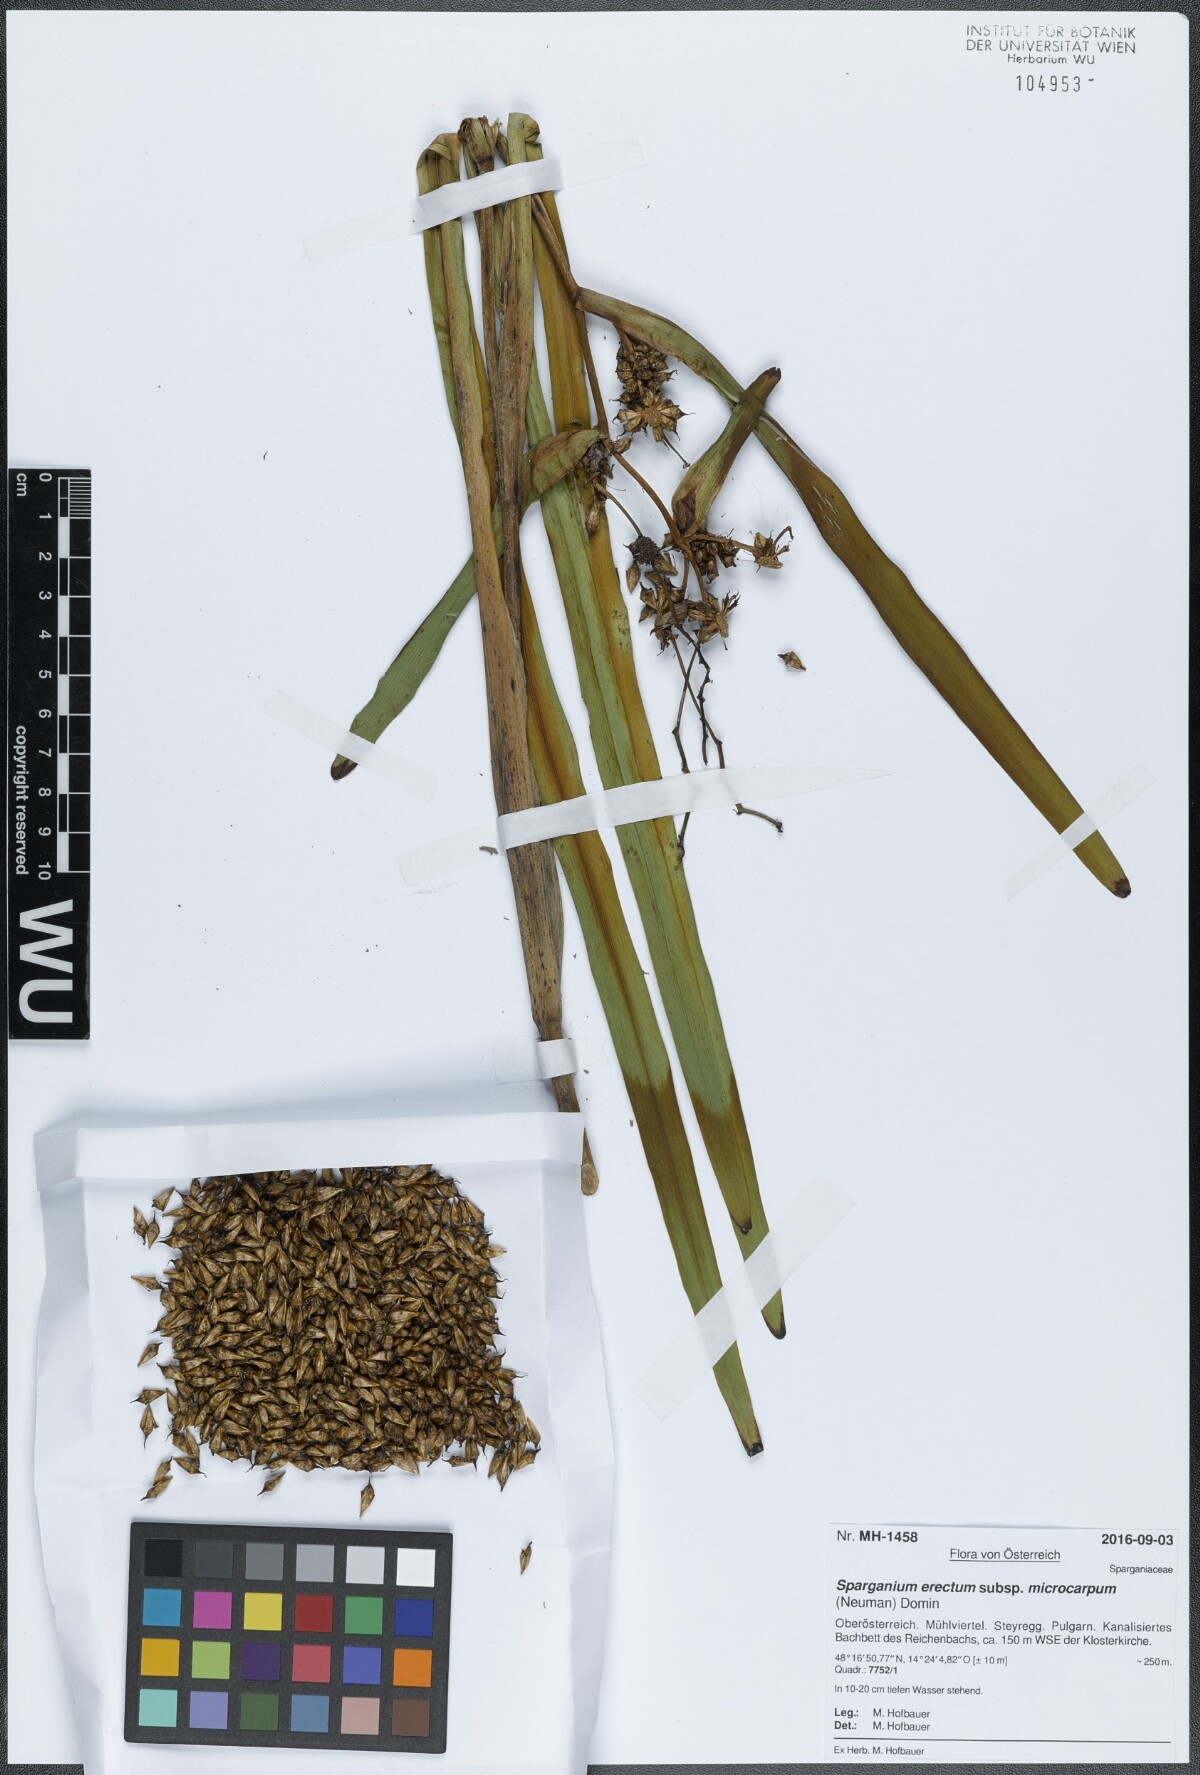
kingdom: Plantae
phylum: Tracheophyta
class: Liliopsida
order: Poales
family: Typhaceae
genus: Sparganium
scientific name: Sparganium erectum
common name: Branched bur-reed
